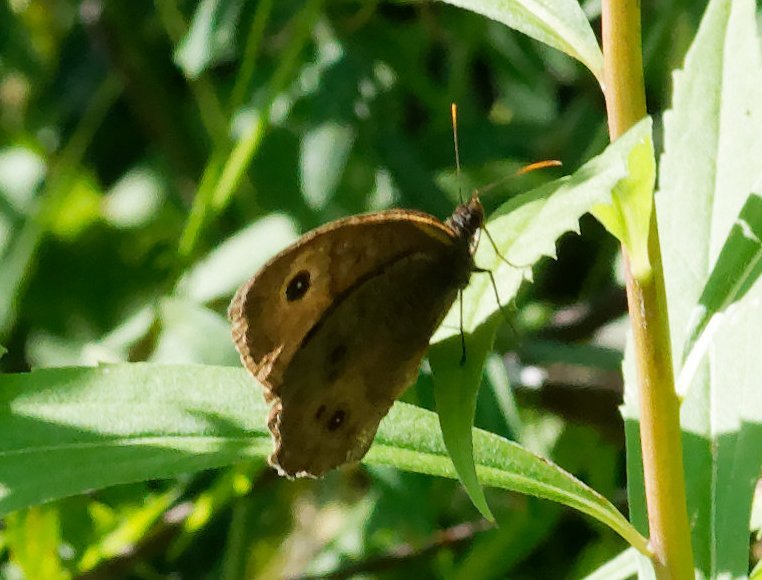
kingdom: Animalia
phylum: Arthropoda
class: Insecta
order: Lepidoptera
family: Nymphalidae
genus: Cercyonis
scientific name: Cercyonis pegala
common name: Common Wood-Nymph
